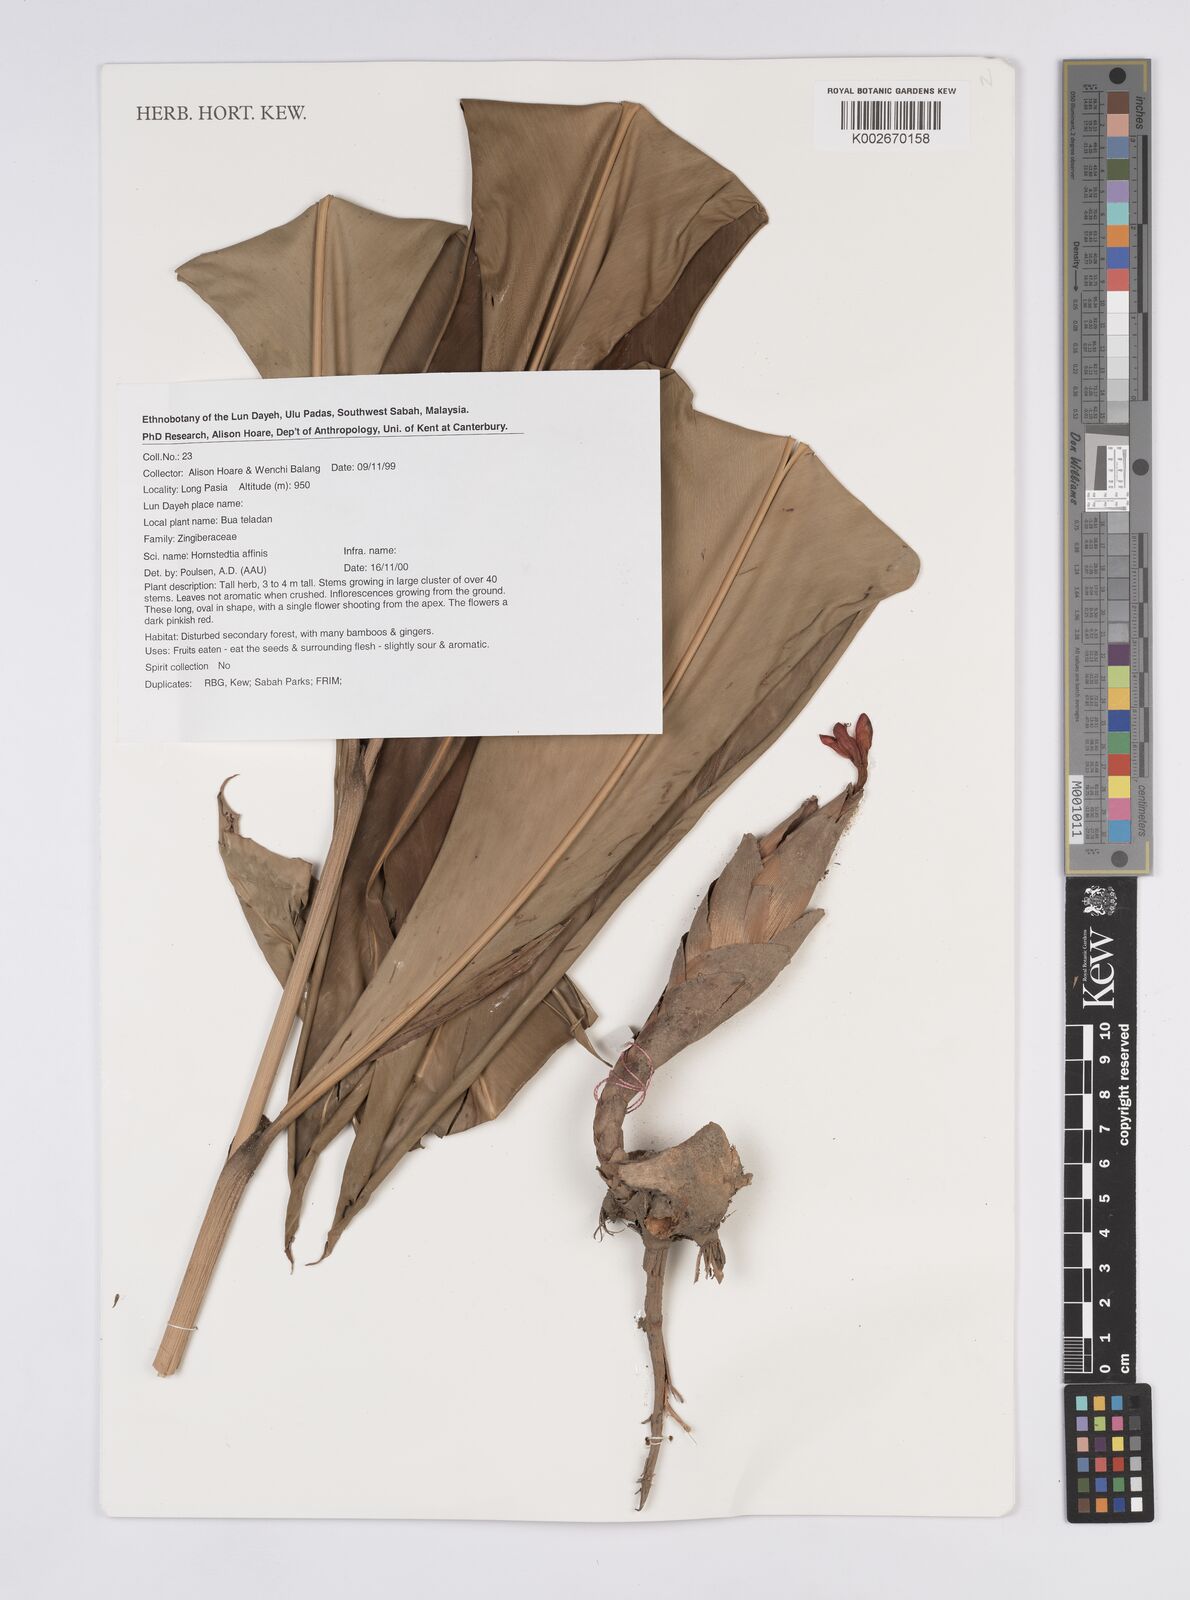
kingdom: Plantae
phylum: Tracheophyta
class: Liliopsida
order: Zingiberales
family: Zingiberaceae
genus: Hornstedtia
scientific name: Hornstedtia affinis
